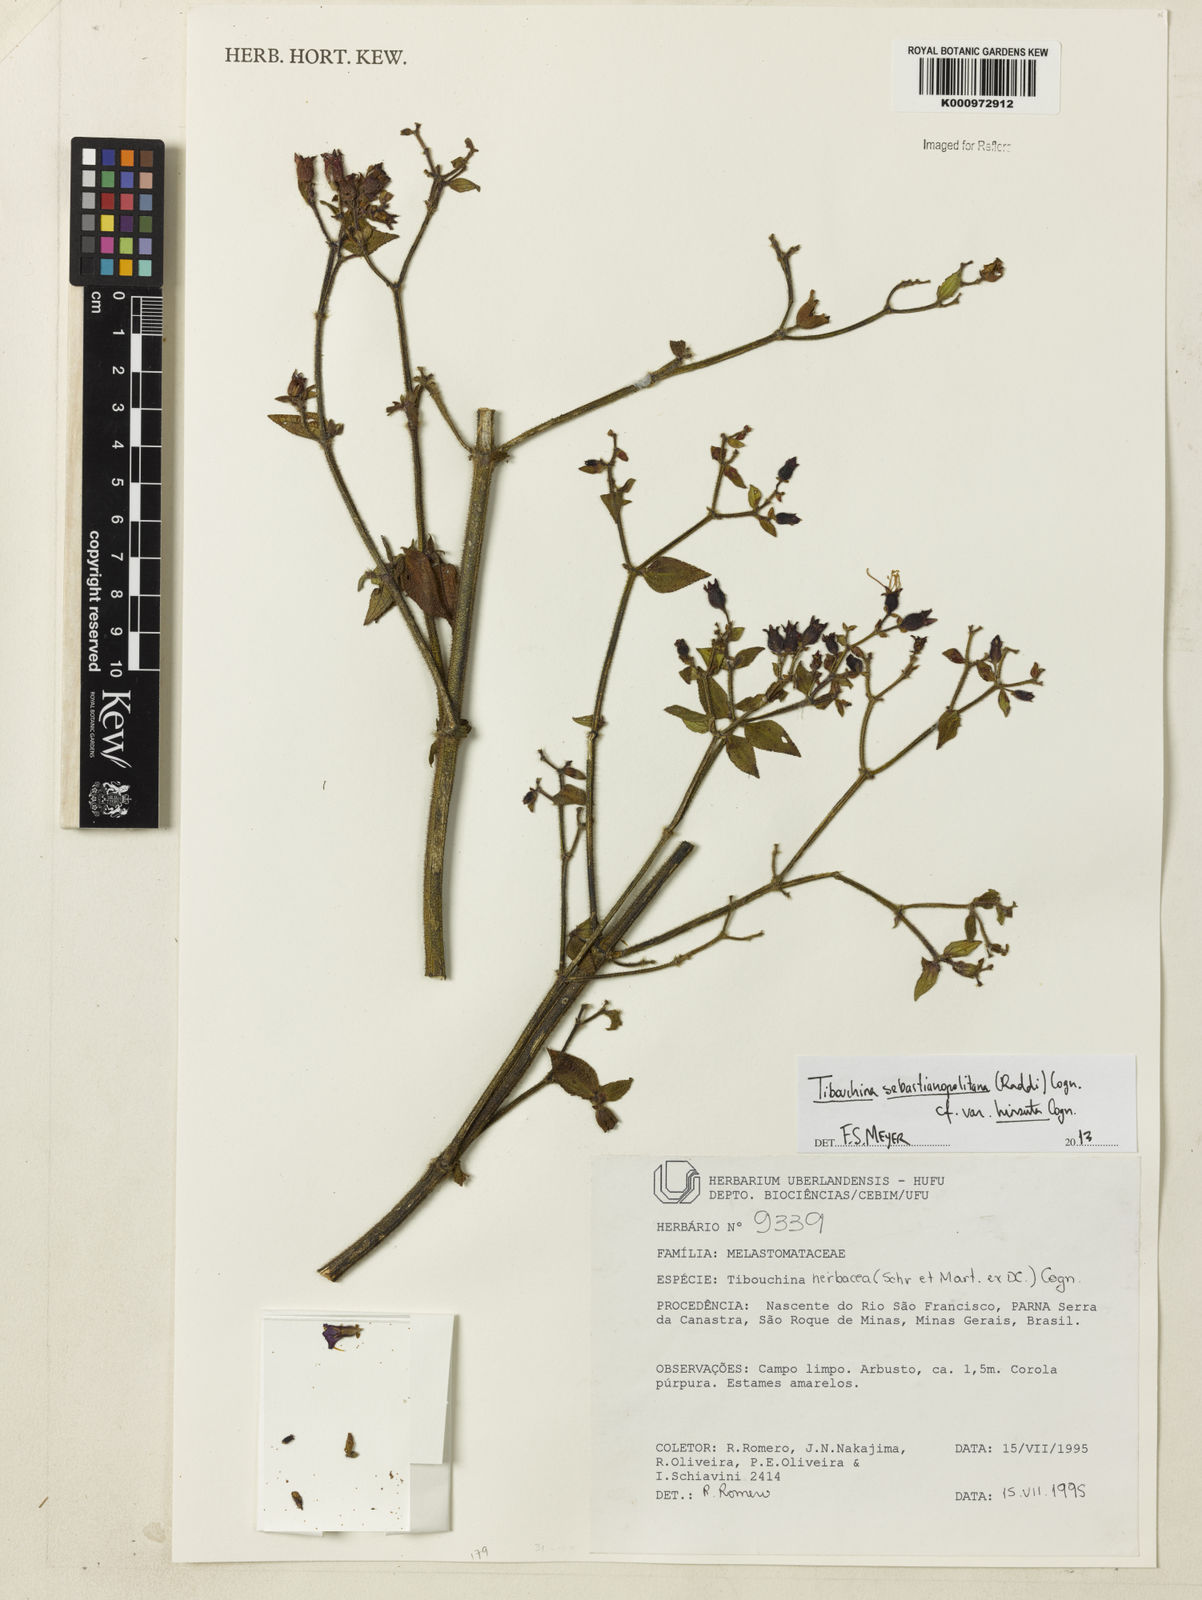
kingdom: Plantae
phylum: Tracheophyta
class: Magnoliopsida
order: Myrtales
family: Melastomataceae
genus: Chaetogastra
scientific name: Chaetogastra sebastianopolitana
